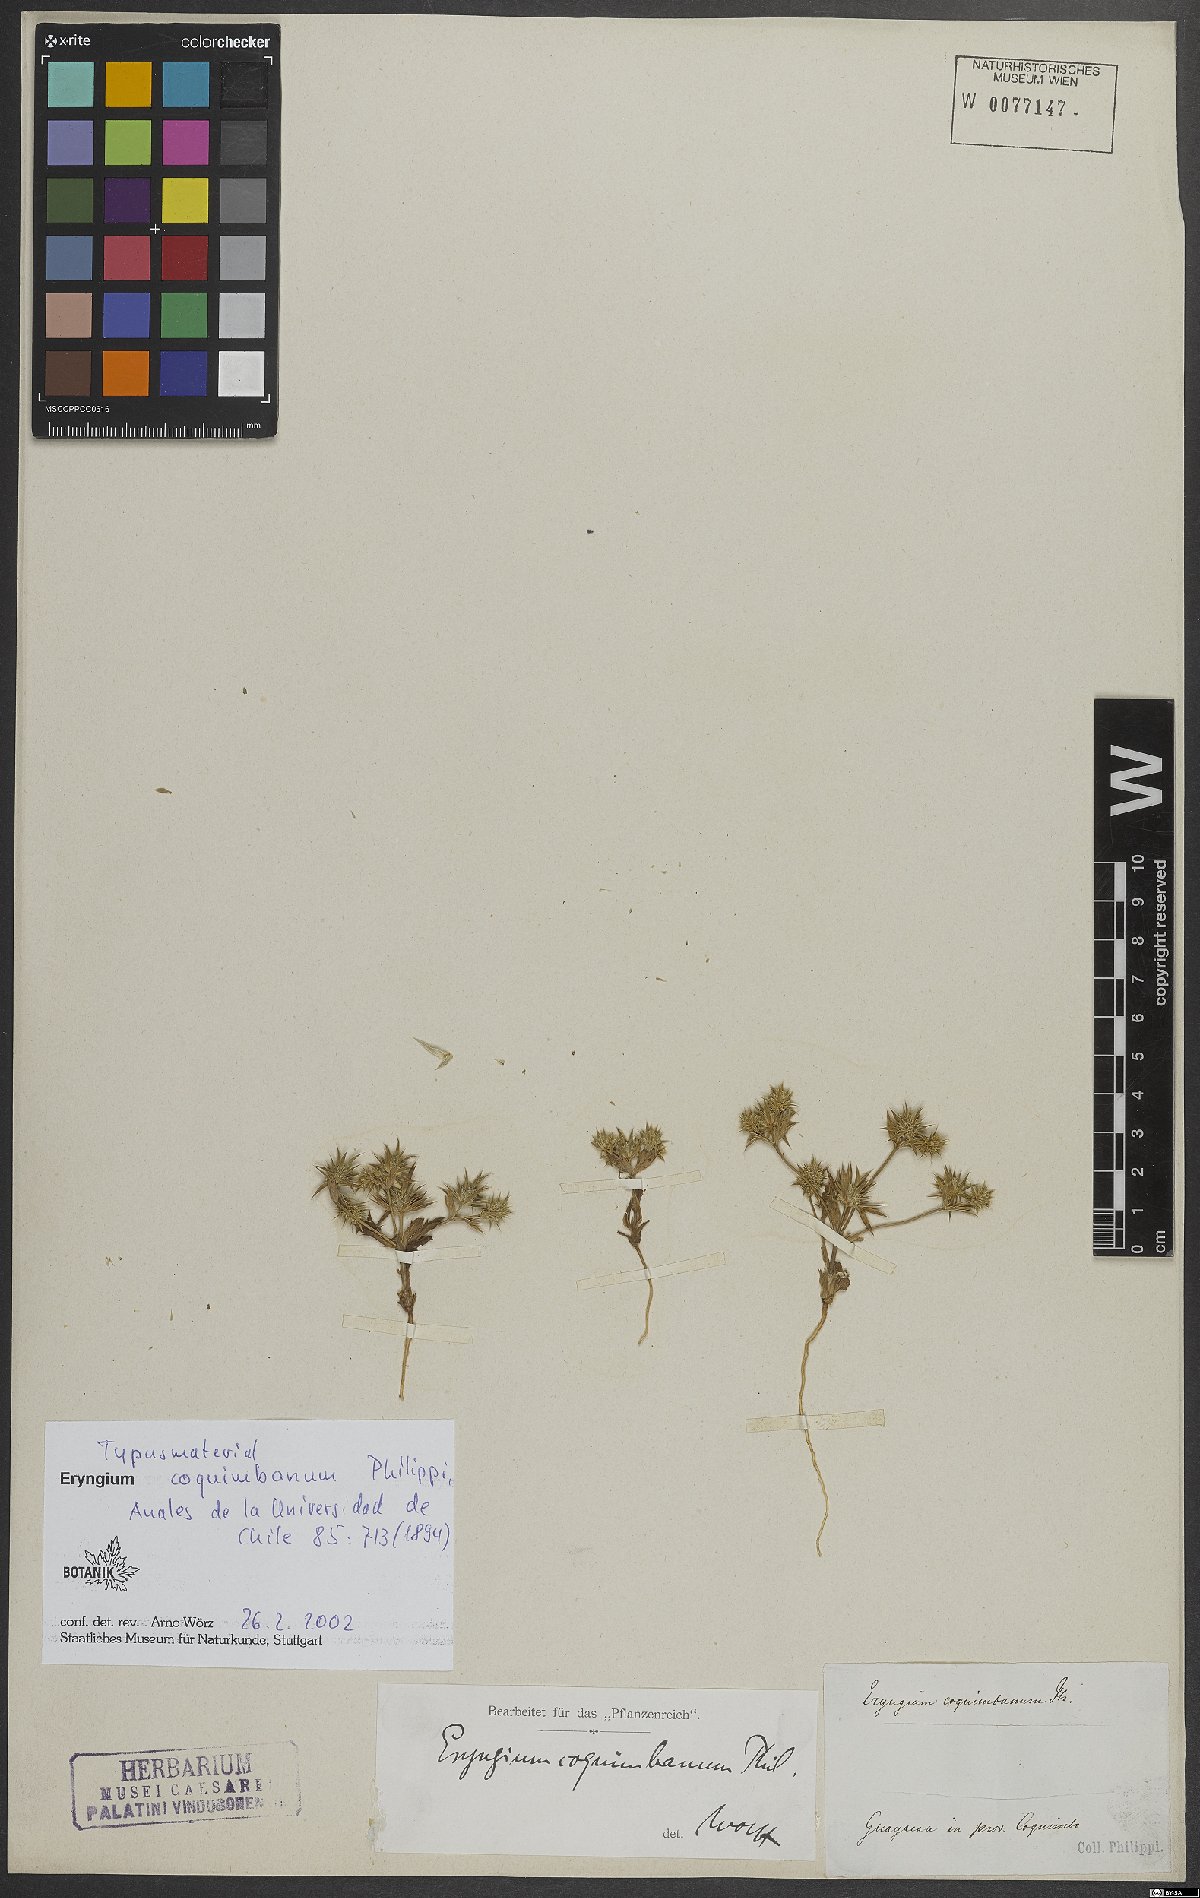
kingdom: Plantae
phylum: Tracheophyta
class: Magnoliopsida
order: Apiales
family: Apiaceae
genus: Eryngium
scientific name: Eryngium coquimbanum
